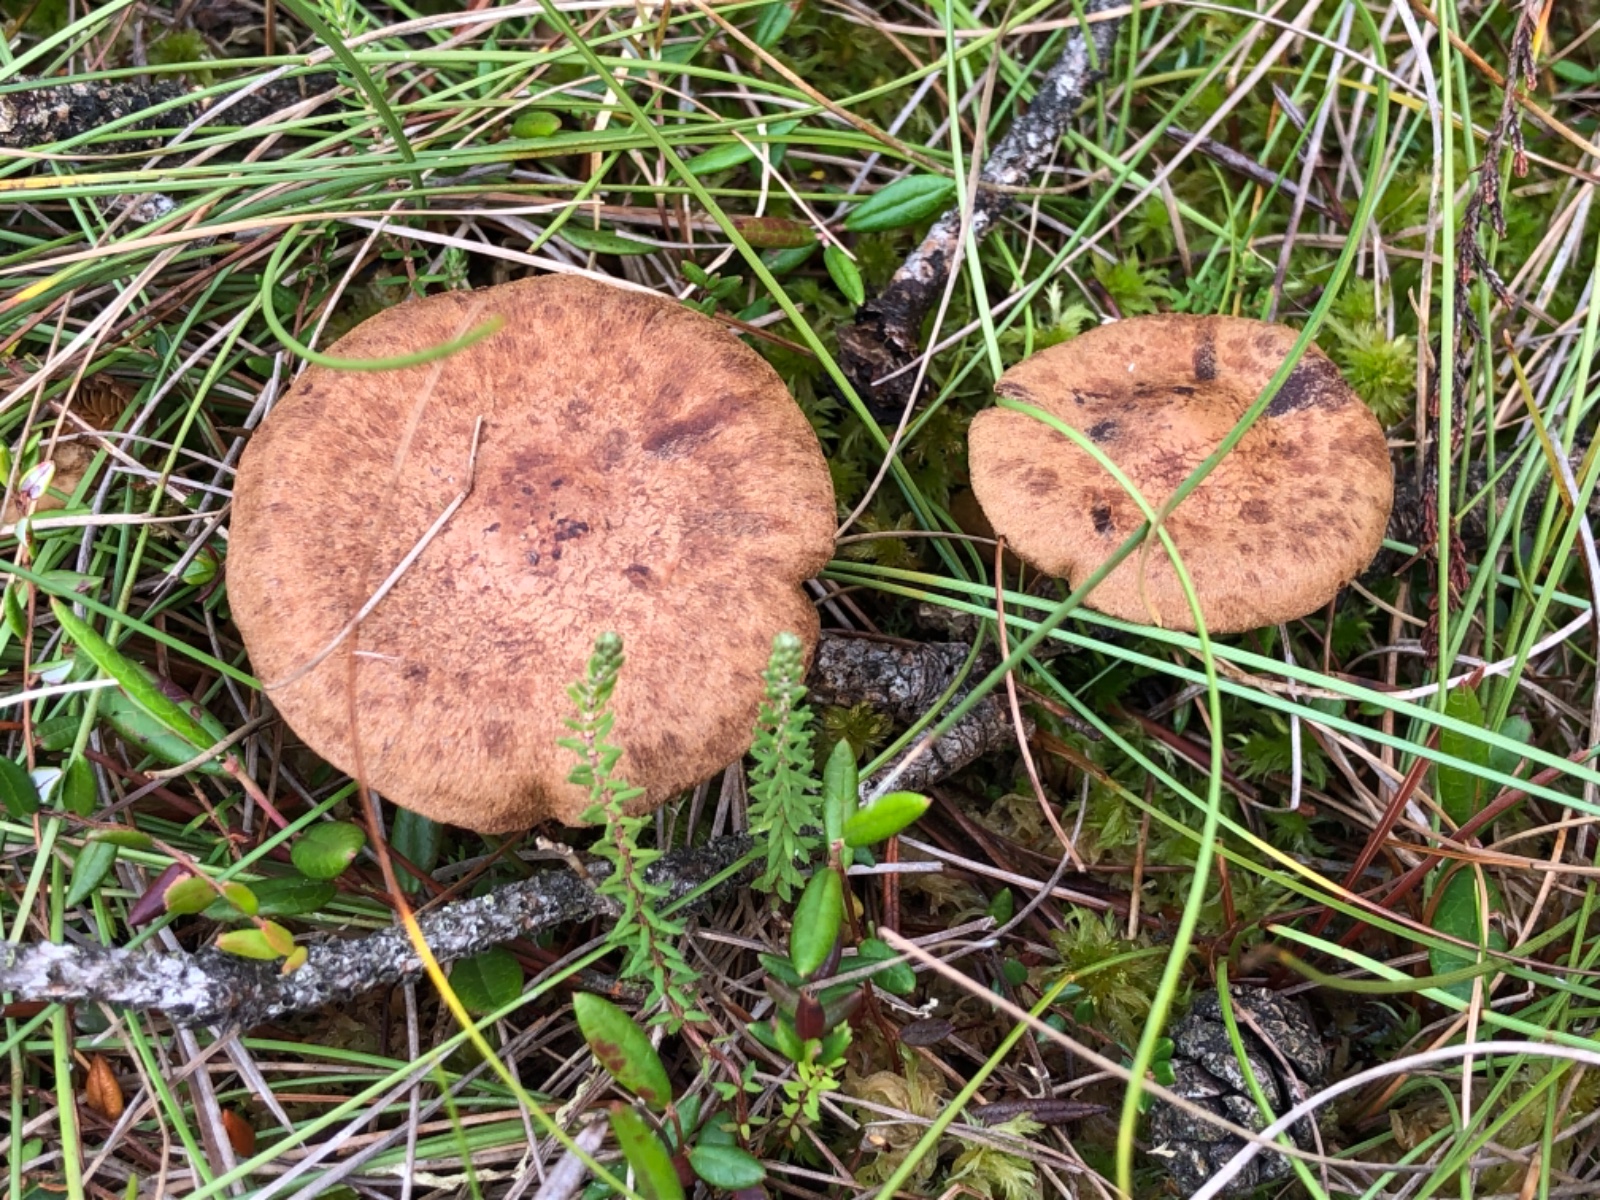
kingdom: Fungi
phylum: Basidiomycota
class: Agaricomycetes
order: Agaricales
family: Cortinariaceae
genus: Cortinarius
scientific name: Cortinarius davemallochii
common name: Mallochs slørhat
